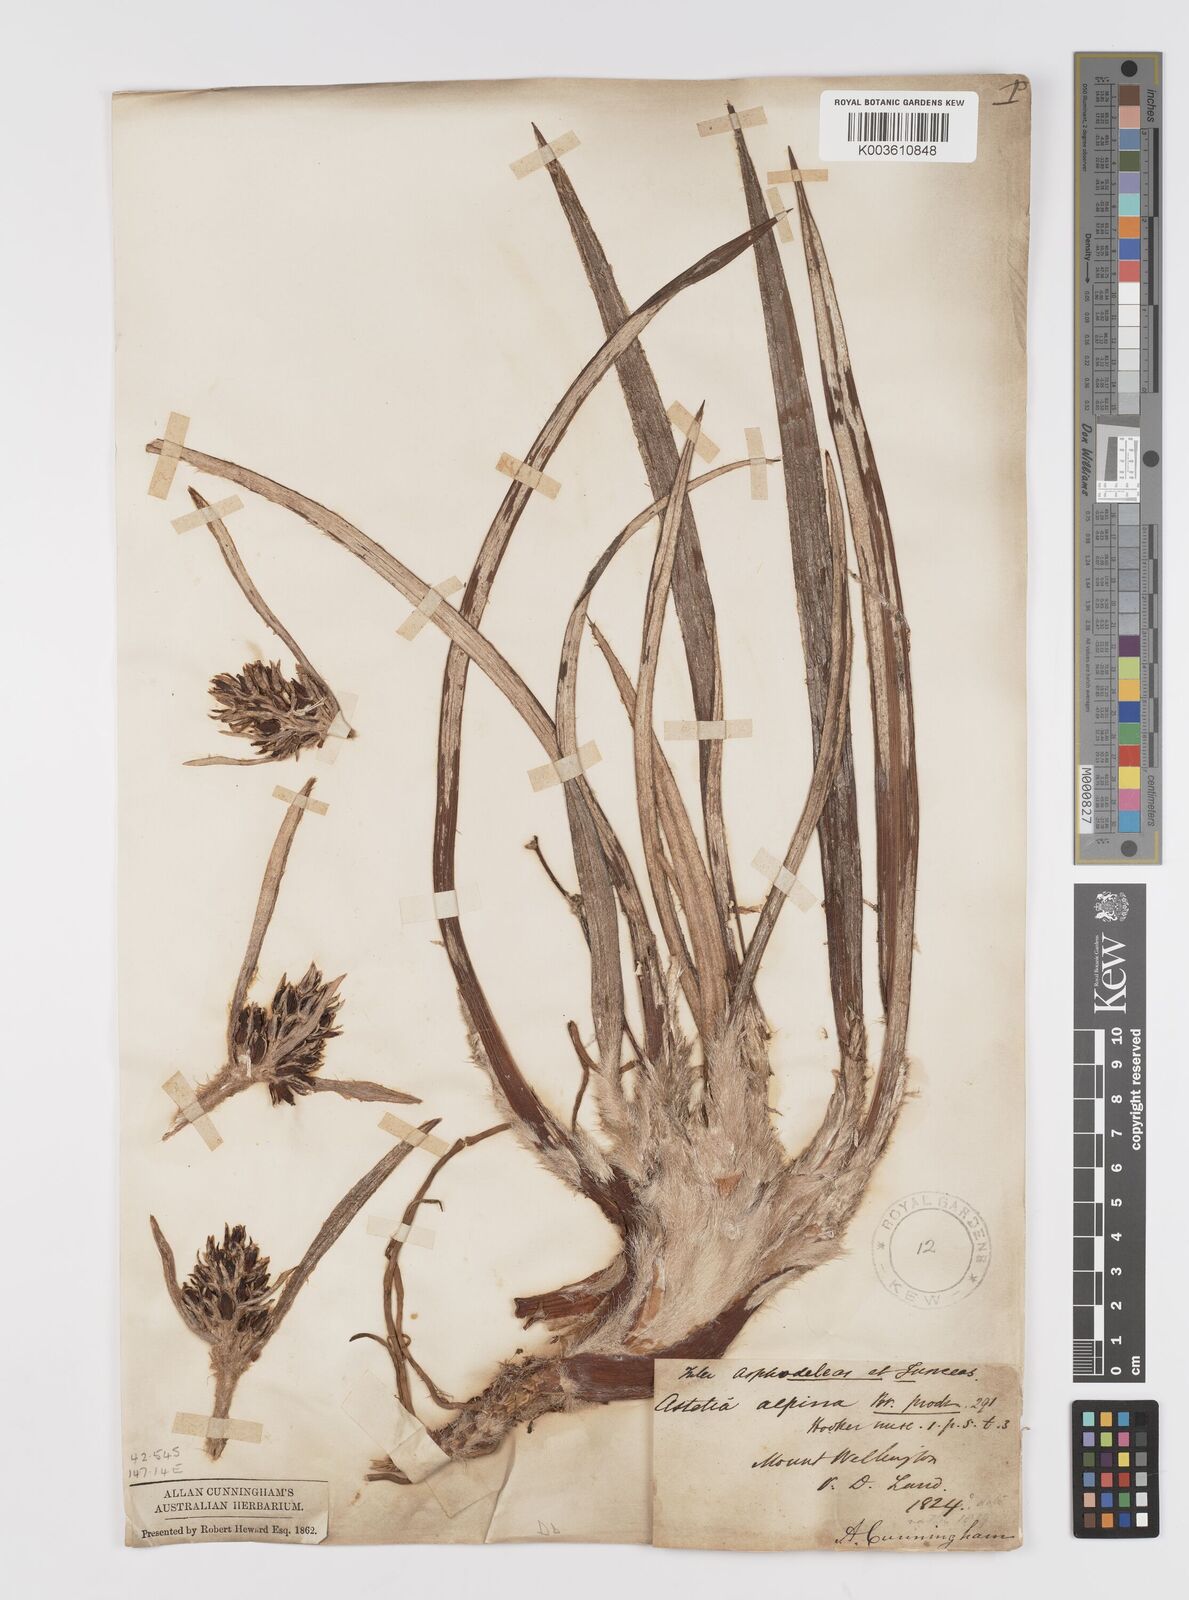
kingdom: Plantae
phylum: Tracheophyta
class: Liliopsida
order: Asparagales
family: Asteliaceae
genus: Astelia
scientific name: Astelia alpina
